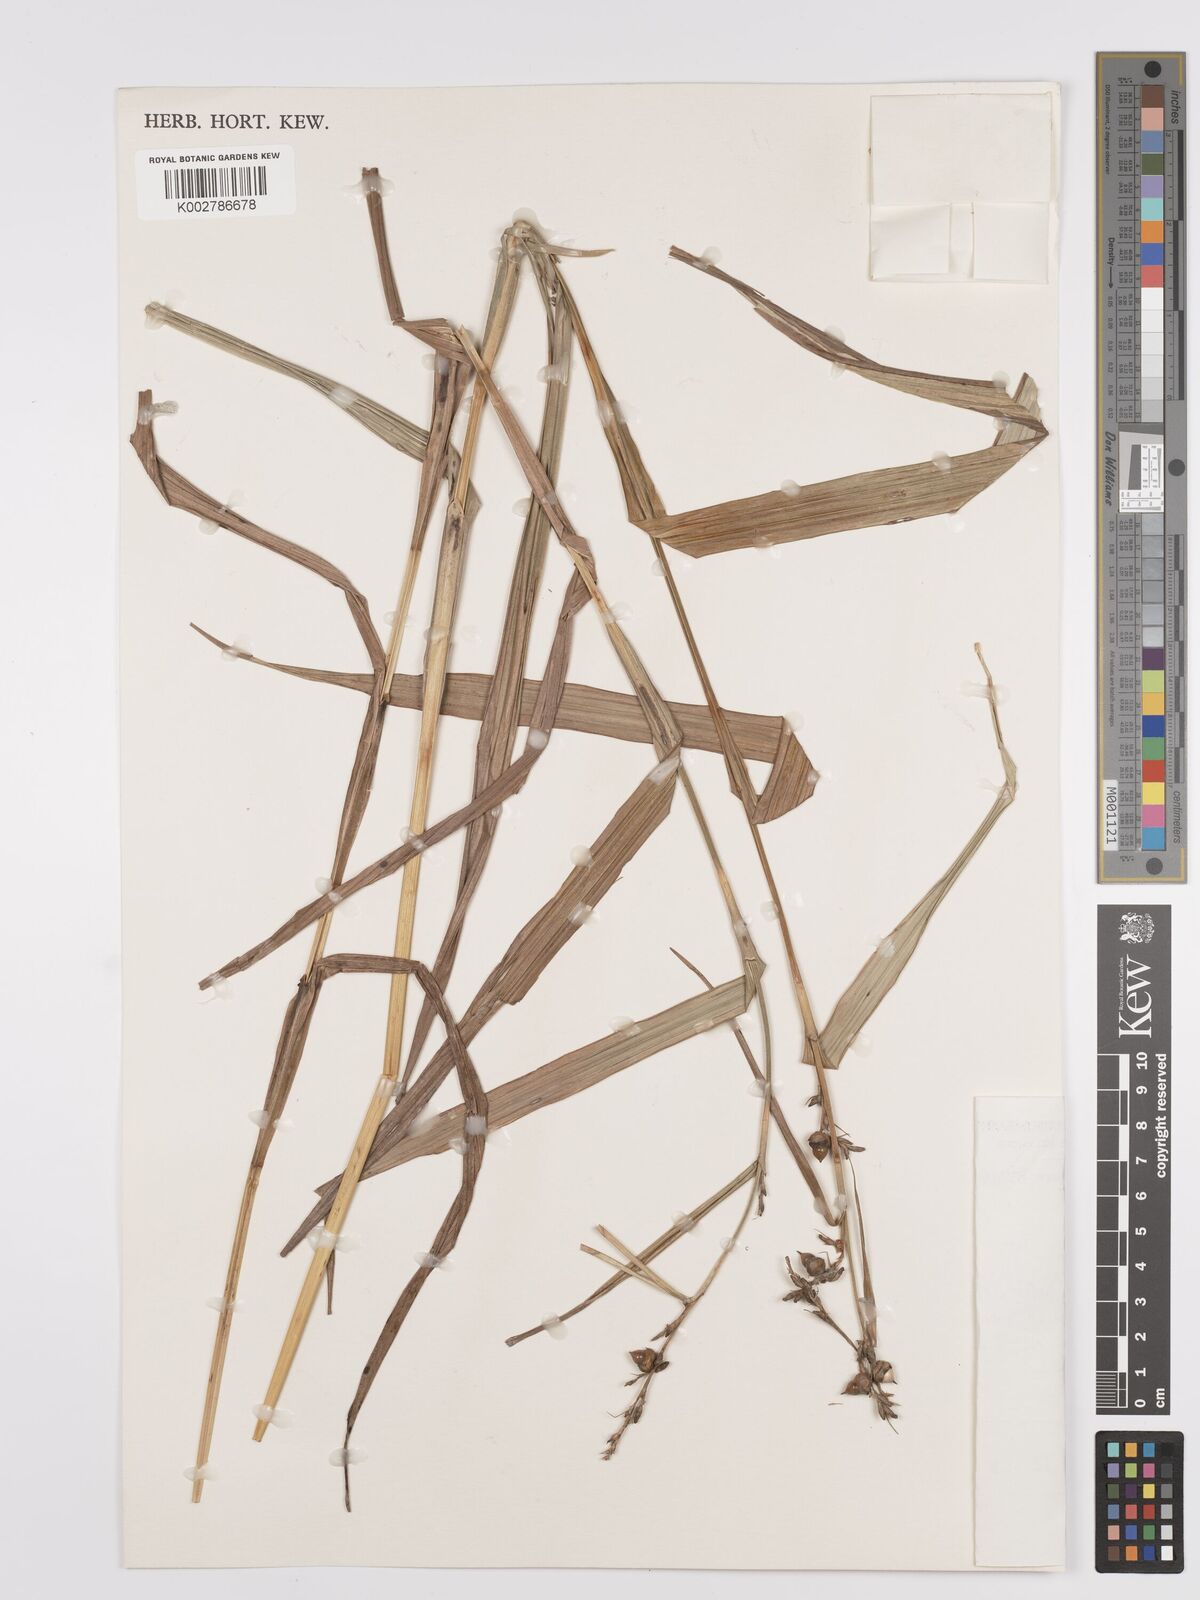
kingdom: Plantae
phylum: Tracheophyta
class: Liliopsida
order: Poales
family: Cyperaceae
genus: Scleria
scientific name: Scleria racemosa
